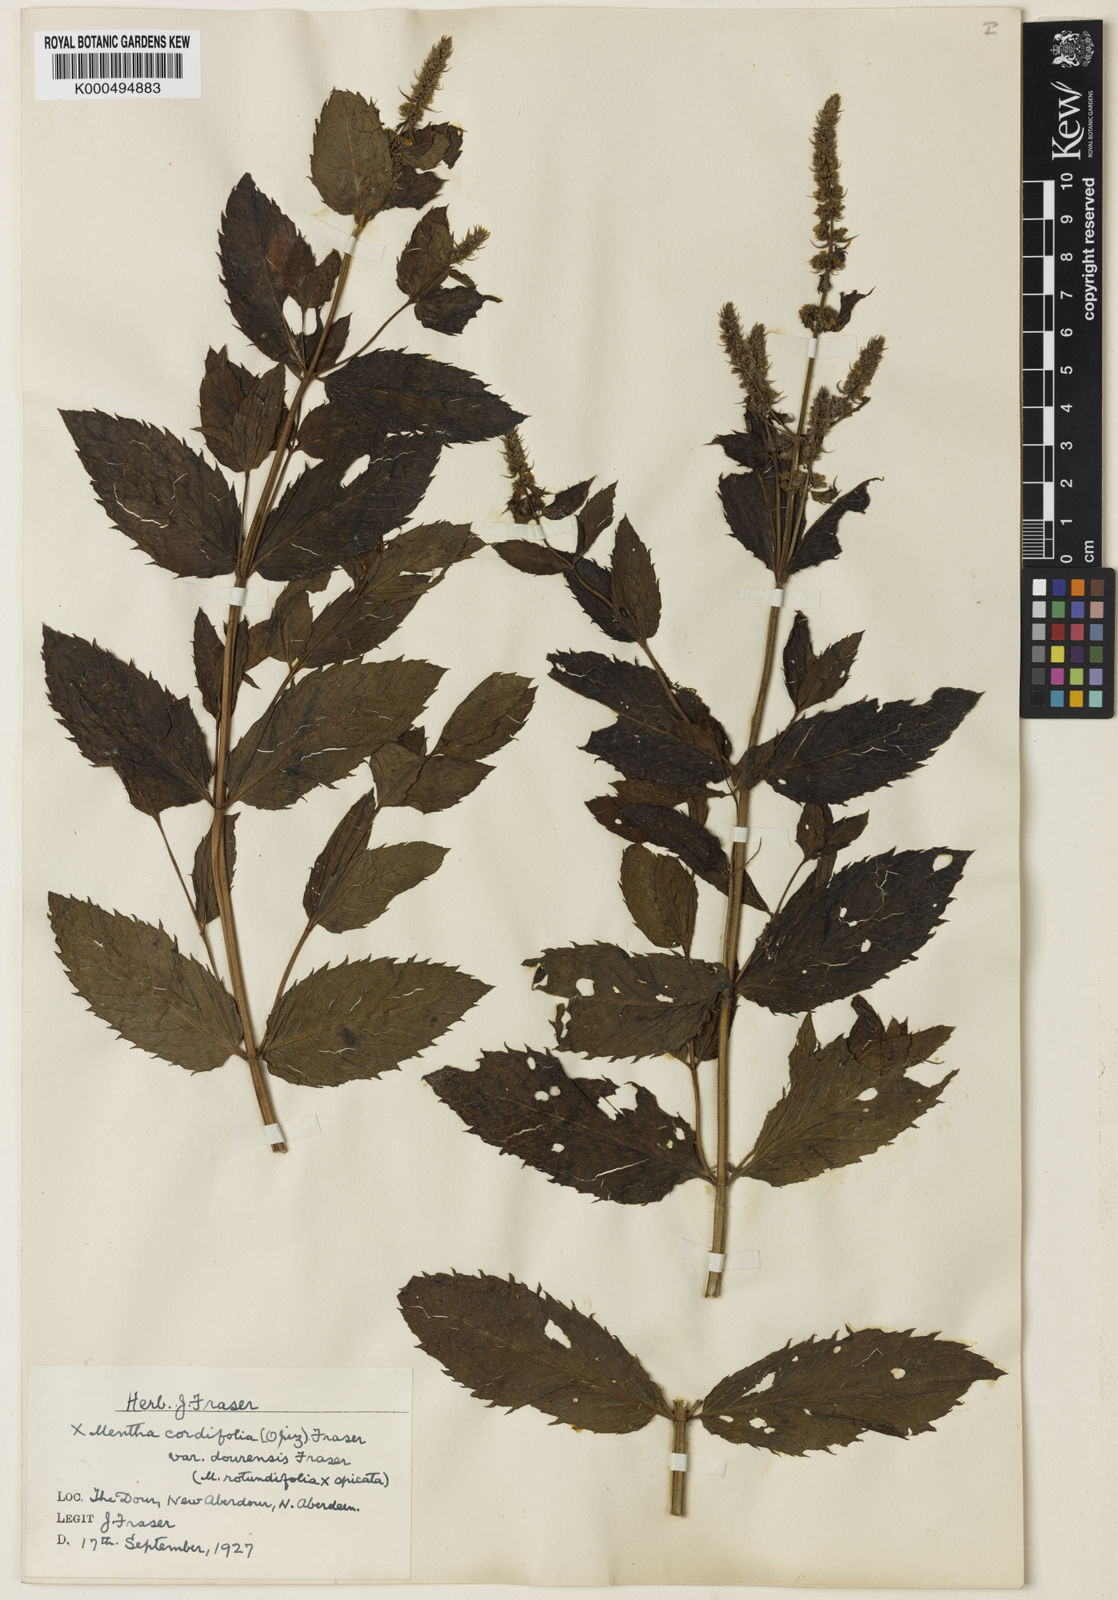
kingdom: Plantae
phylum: Tracheophyta
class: Magnoliopsida
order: Lamiales
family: Lamiaceae
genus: Mentha
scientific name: Mentha villosa
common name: Apple mint
